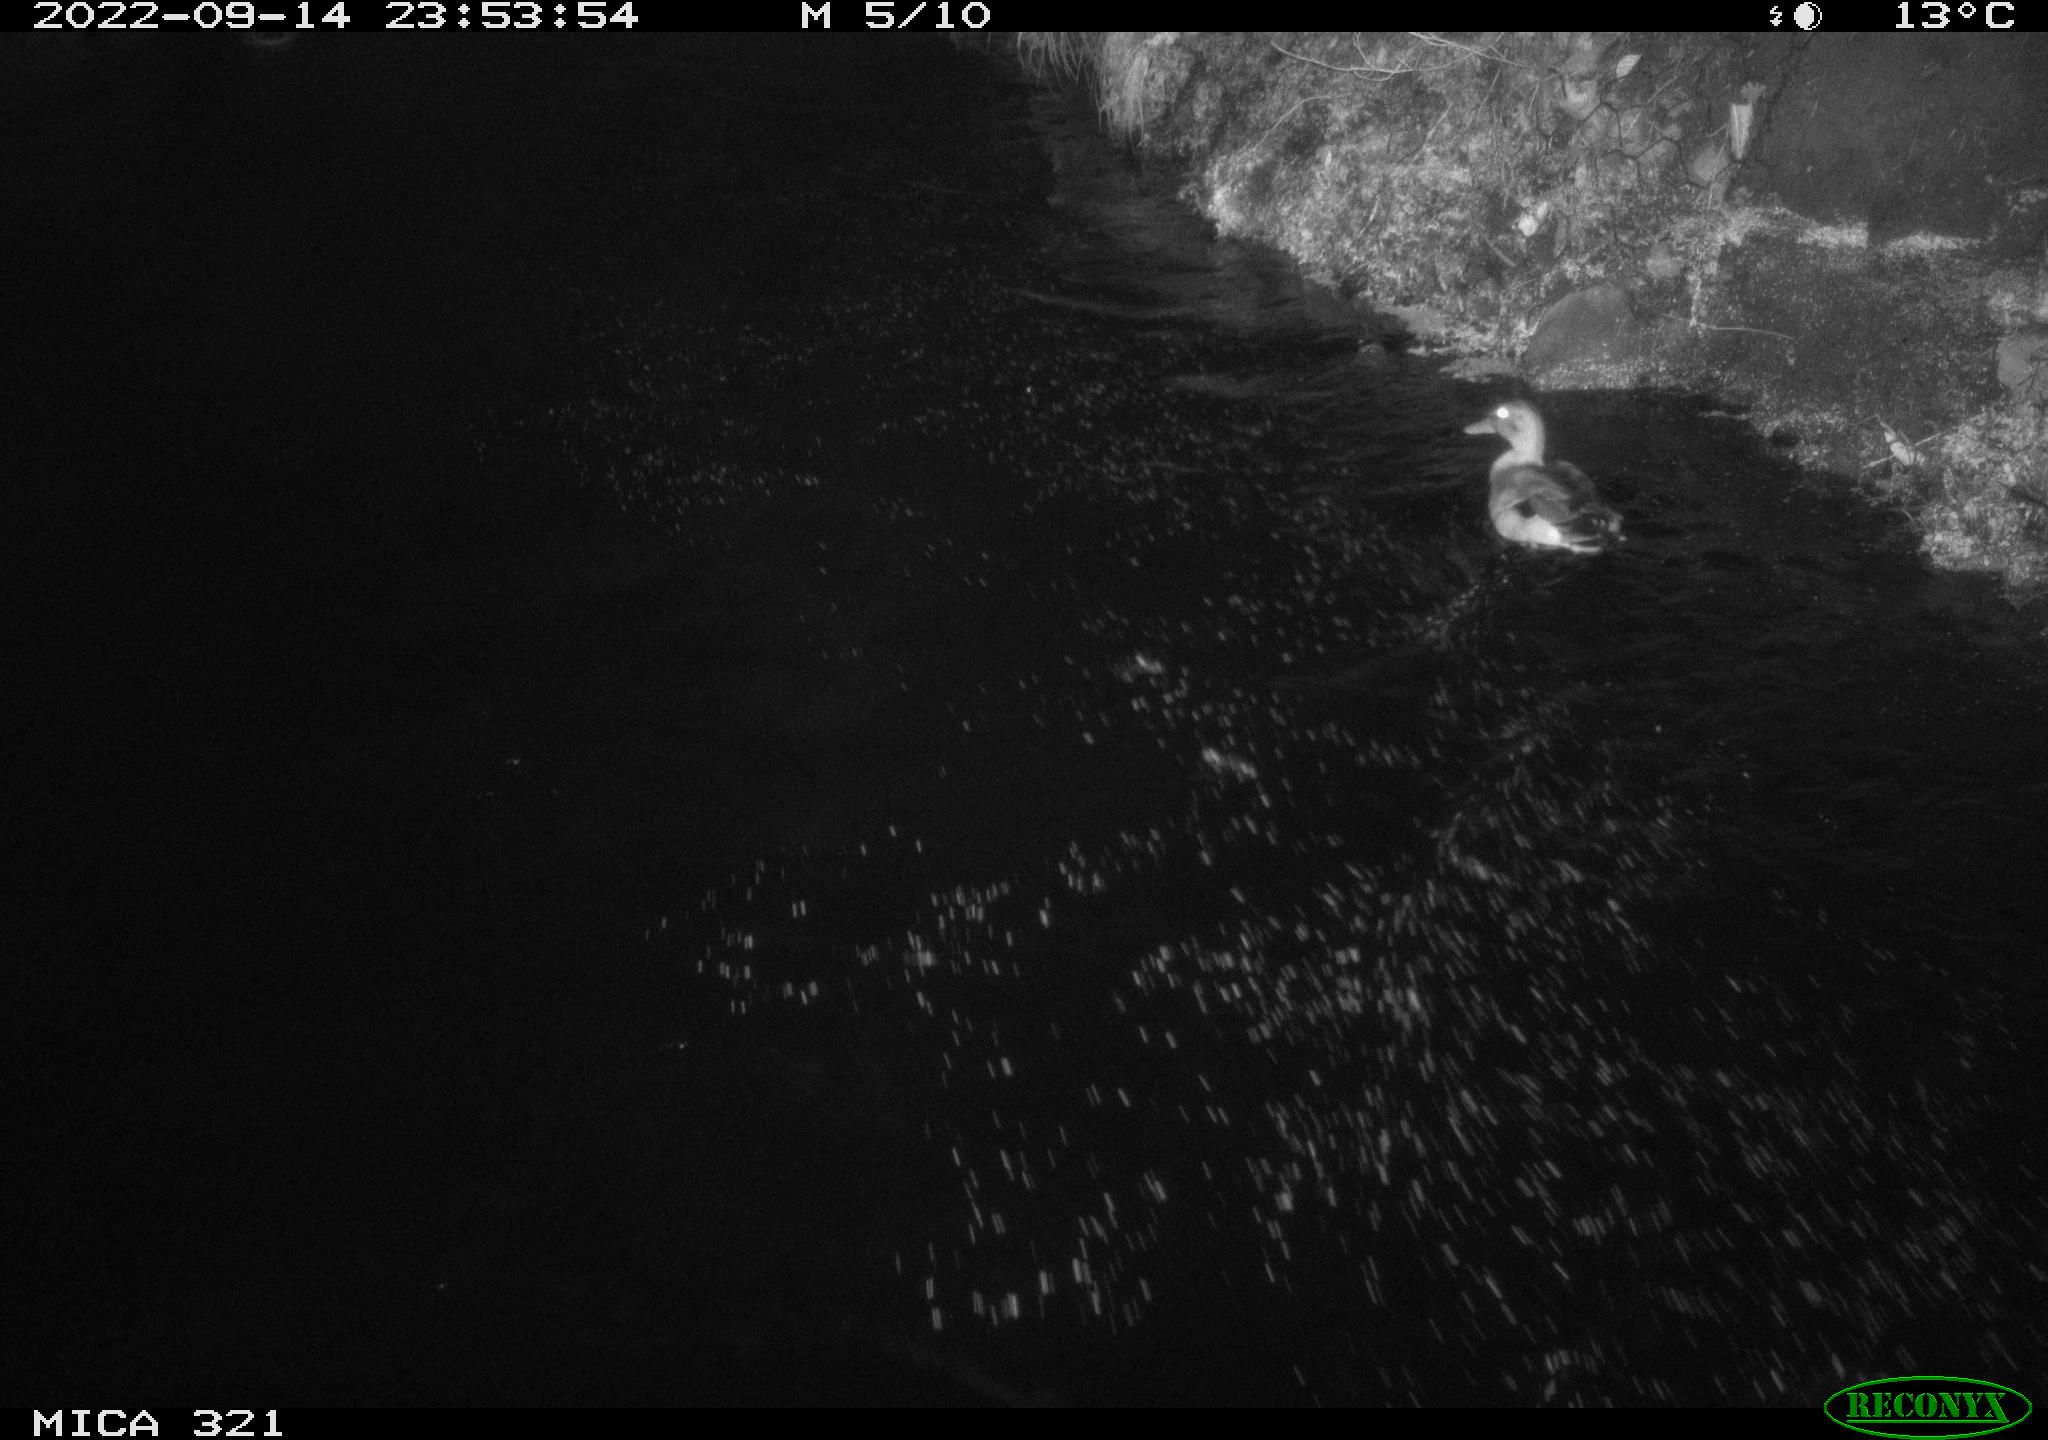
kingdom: Animalia
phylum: Chordata
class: Aves
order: Anseriformes
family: Anatidae
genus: Anas
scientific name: Anas
